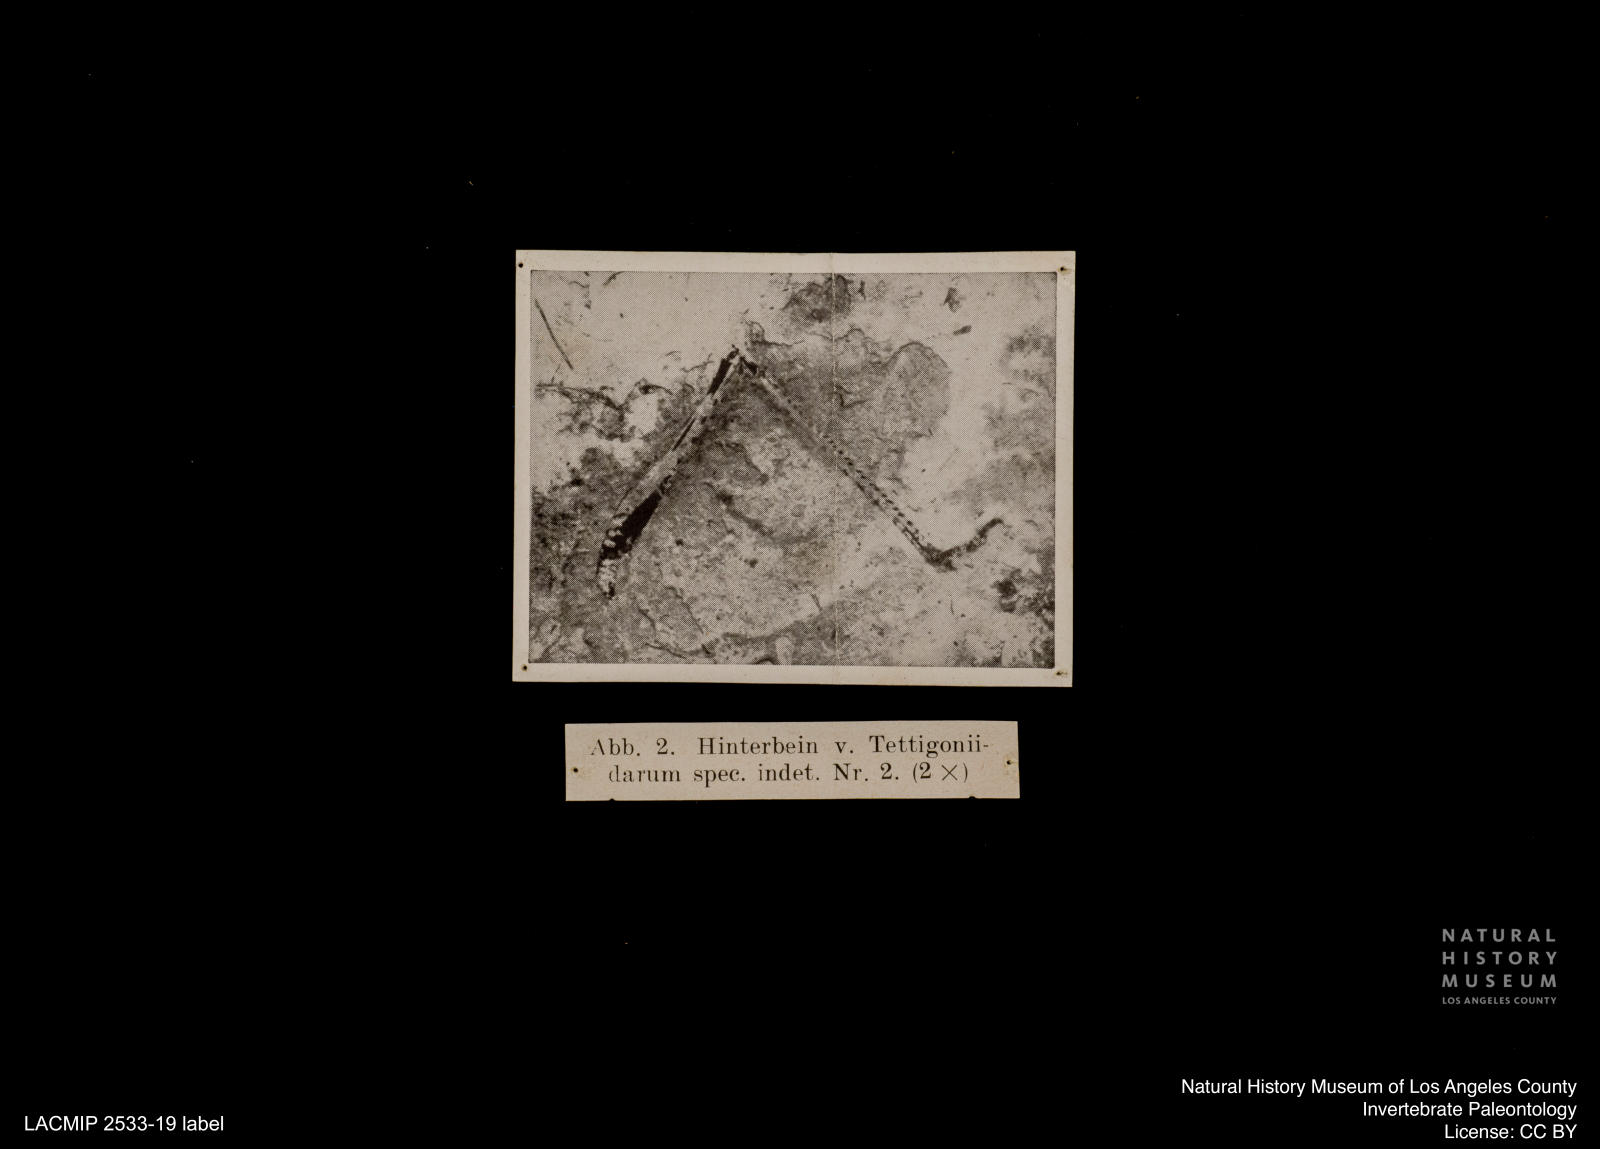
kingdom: Animalia
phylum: Arthropoda
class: Insecta
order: Orthoptera
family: Tettigoniidae
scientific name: Tettigoniidae
